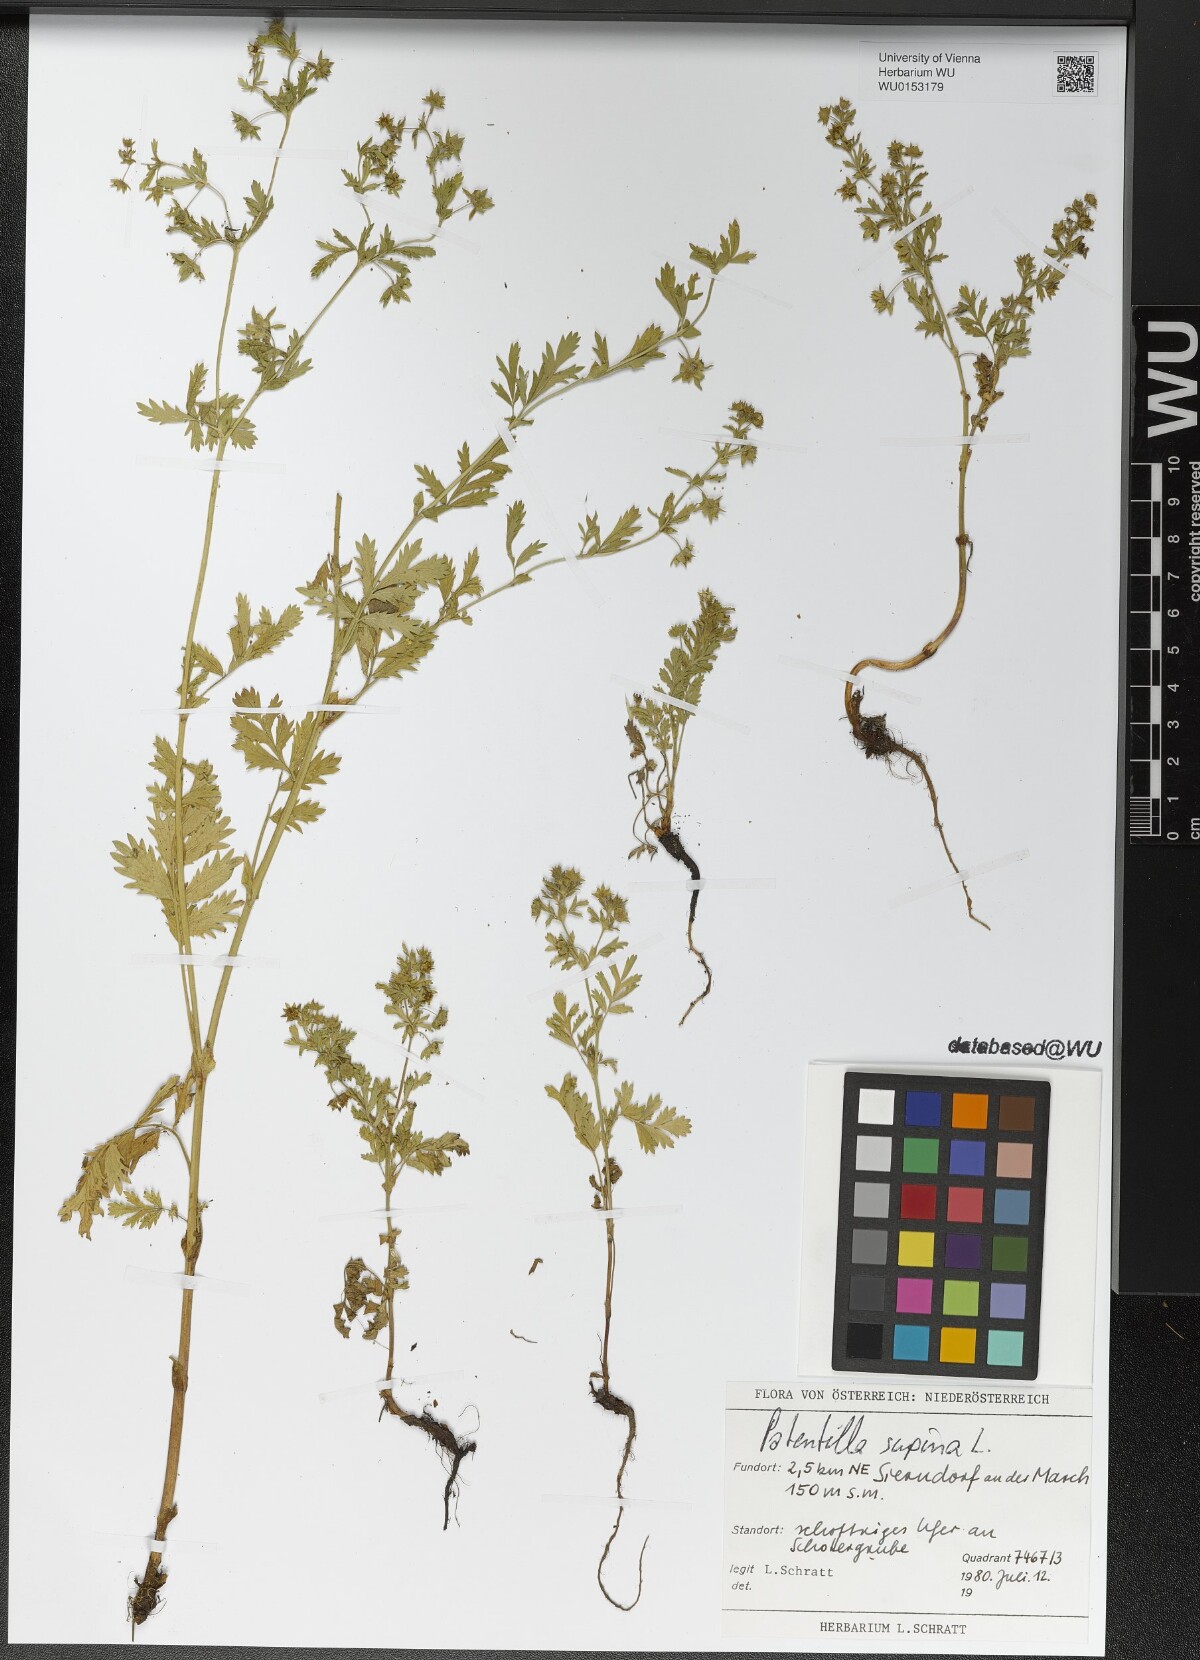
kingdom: Plantae
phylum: Tracheophyta
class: Magnoliopsida
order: Rosales
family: Rosaceae
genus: Potentilla
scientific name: Potentilla supina
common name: Prostrate cinquefoil
